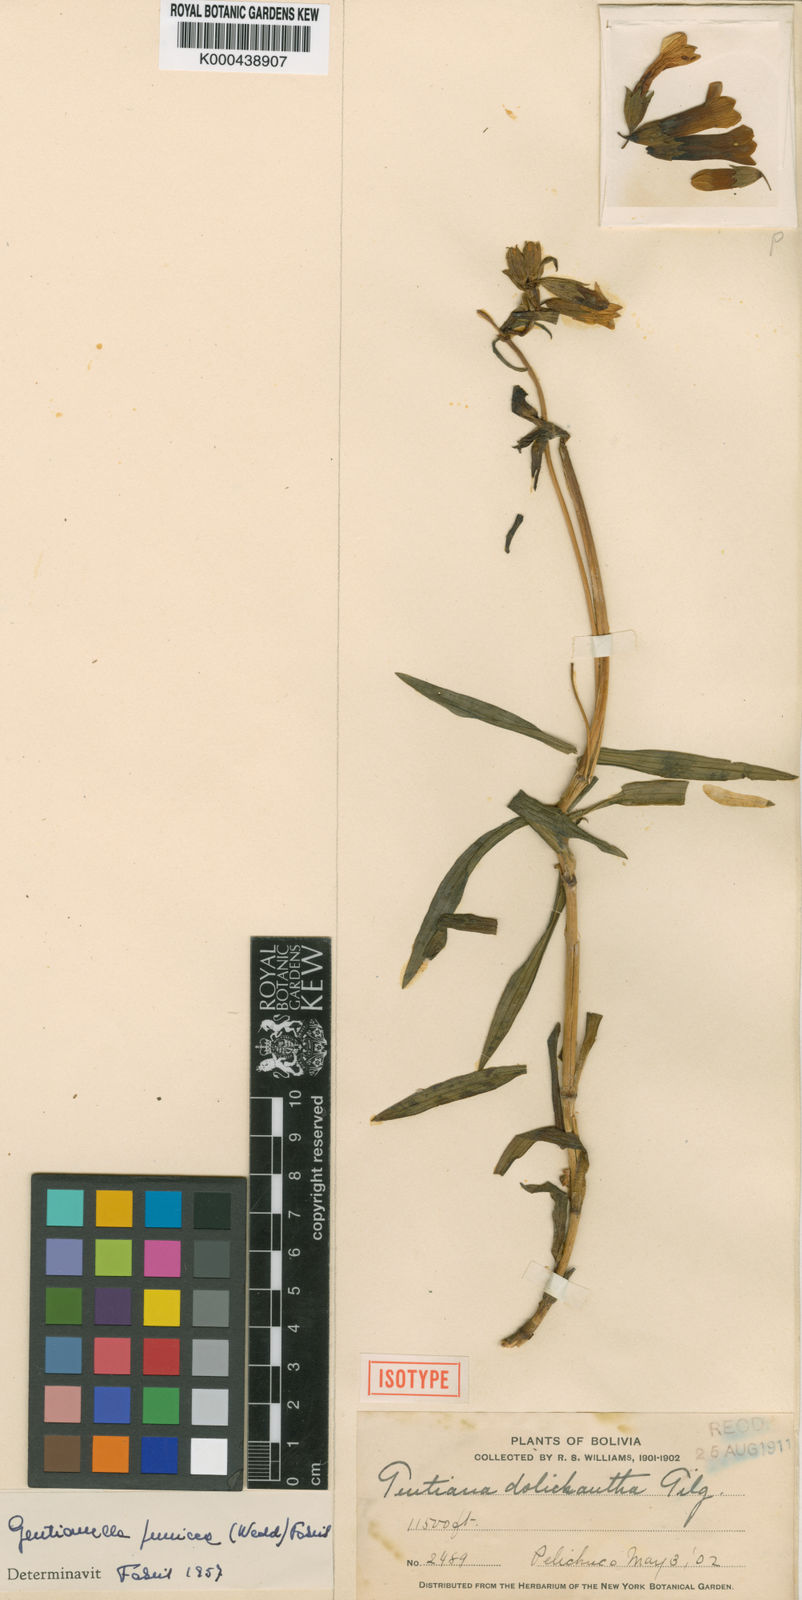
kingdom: Plantae
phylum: Tracheophyta
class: Magnoliopsida
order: Gentianales
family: Gentianaceae
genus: Gentianella
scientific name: Gentianella punicea
